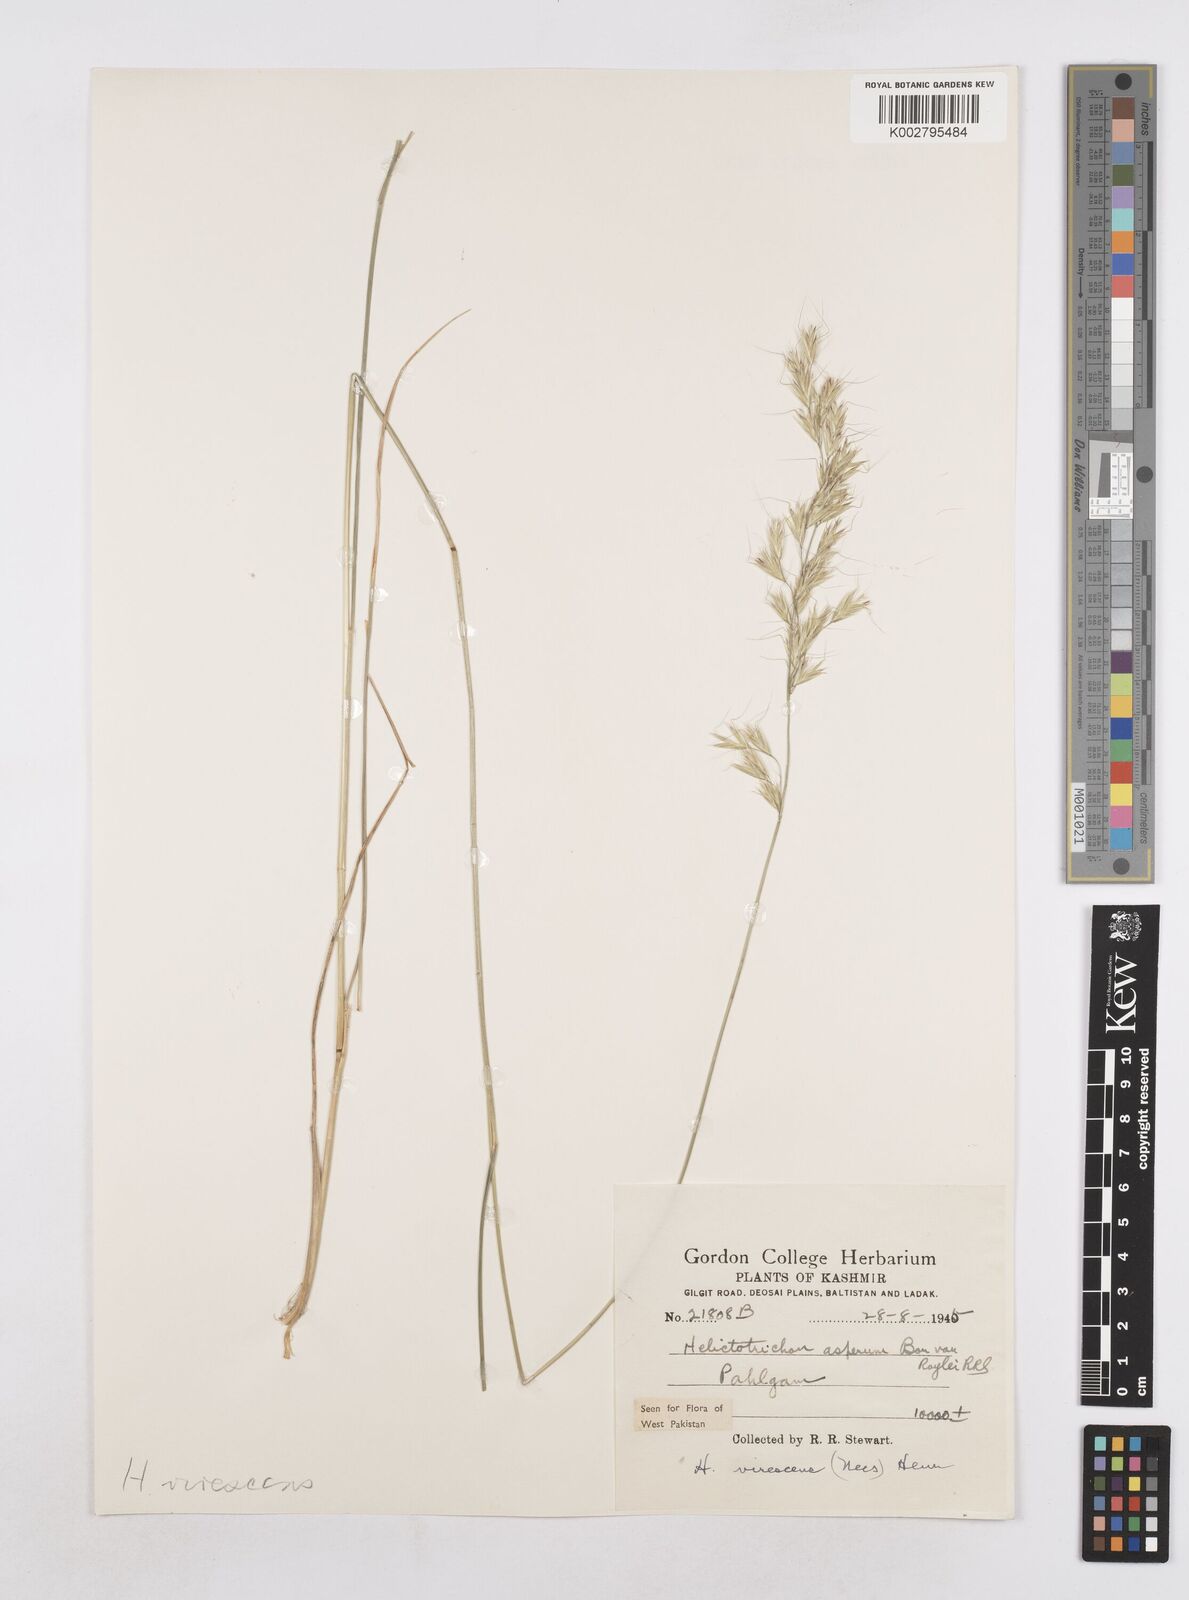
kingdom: Plantae
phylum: Tracheophyta
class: Liliopsida
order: Poales
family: Poaceae
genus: Trisetopsis
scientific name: Trisetopsis junghuhnii
